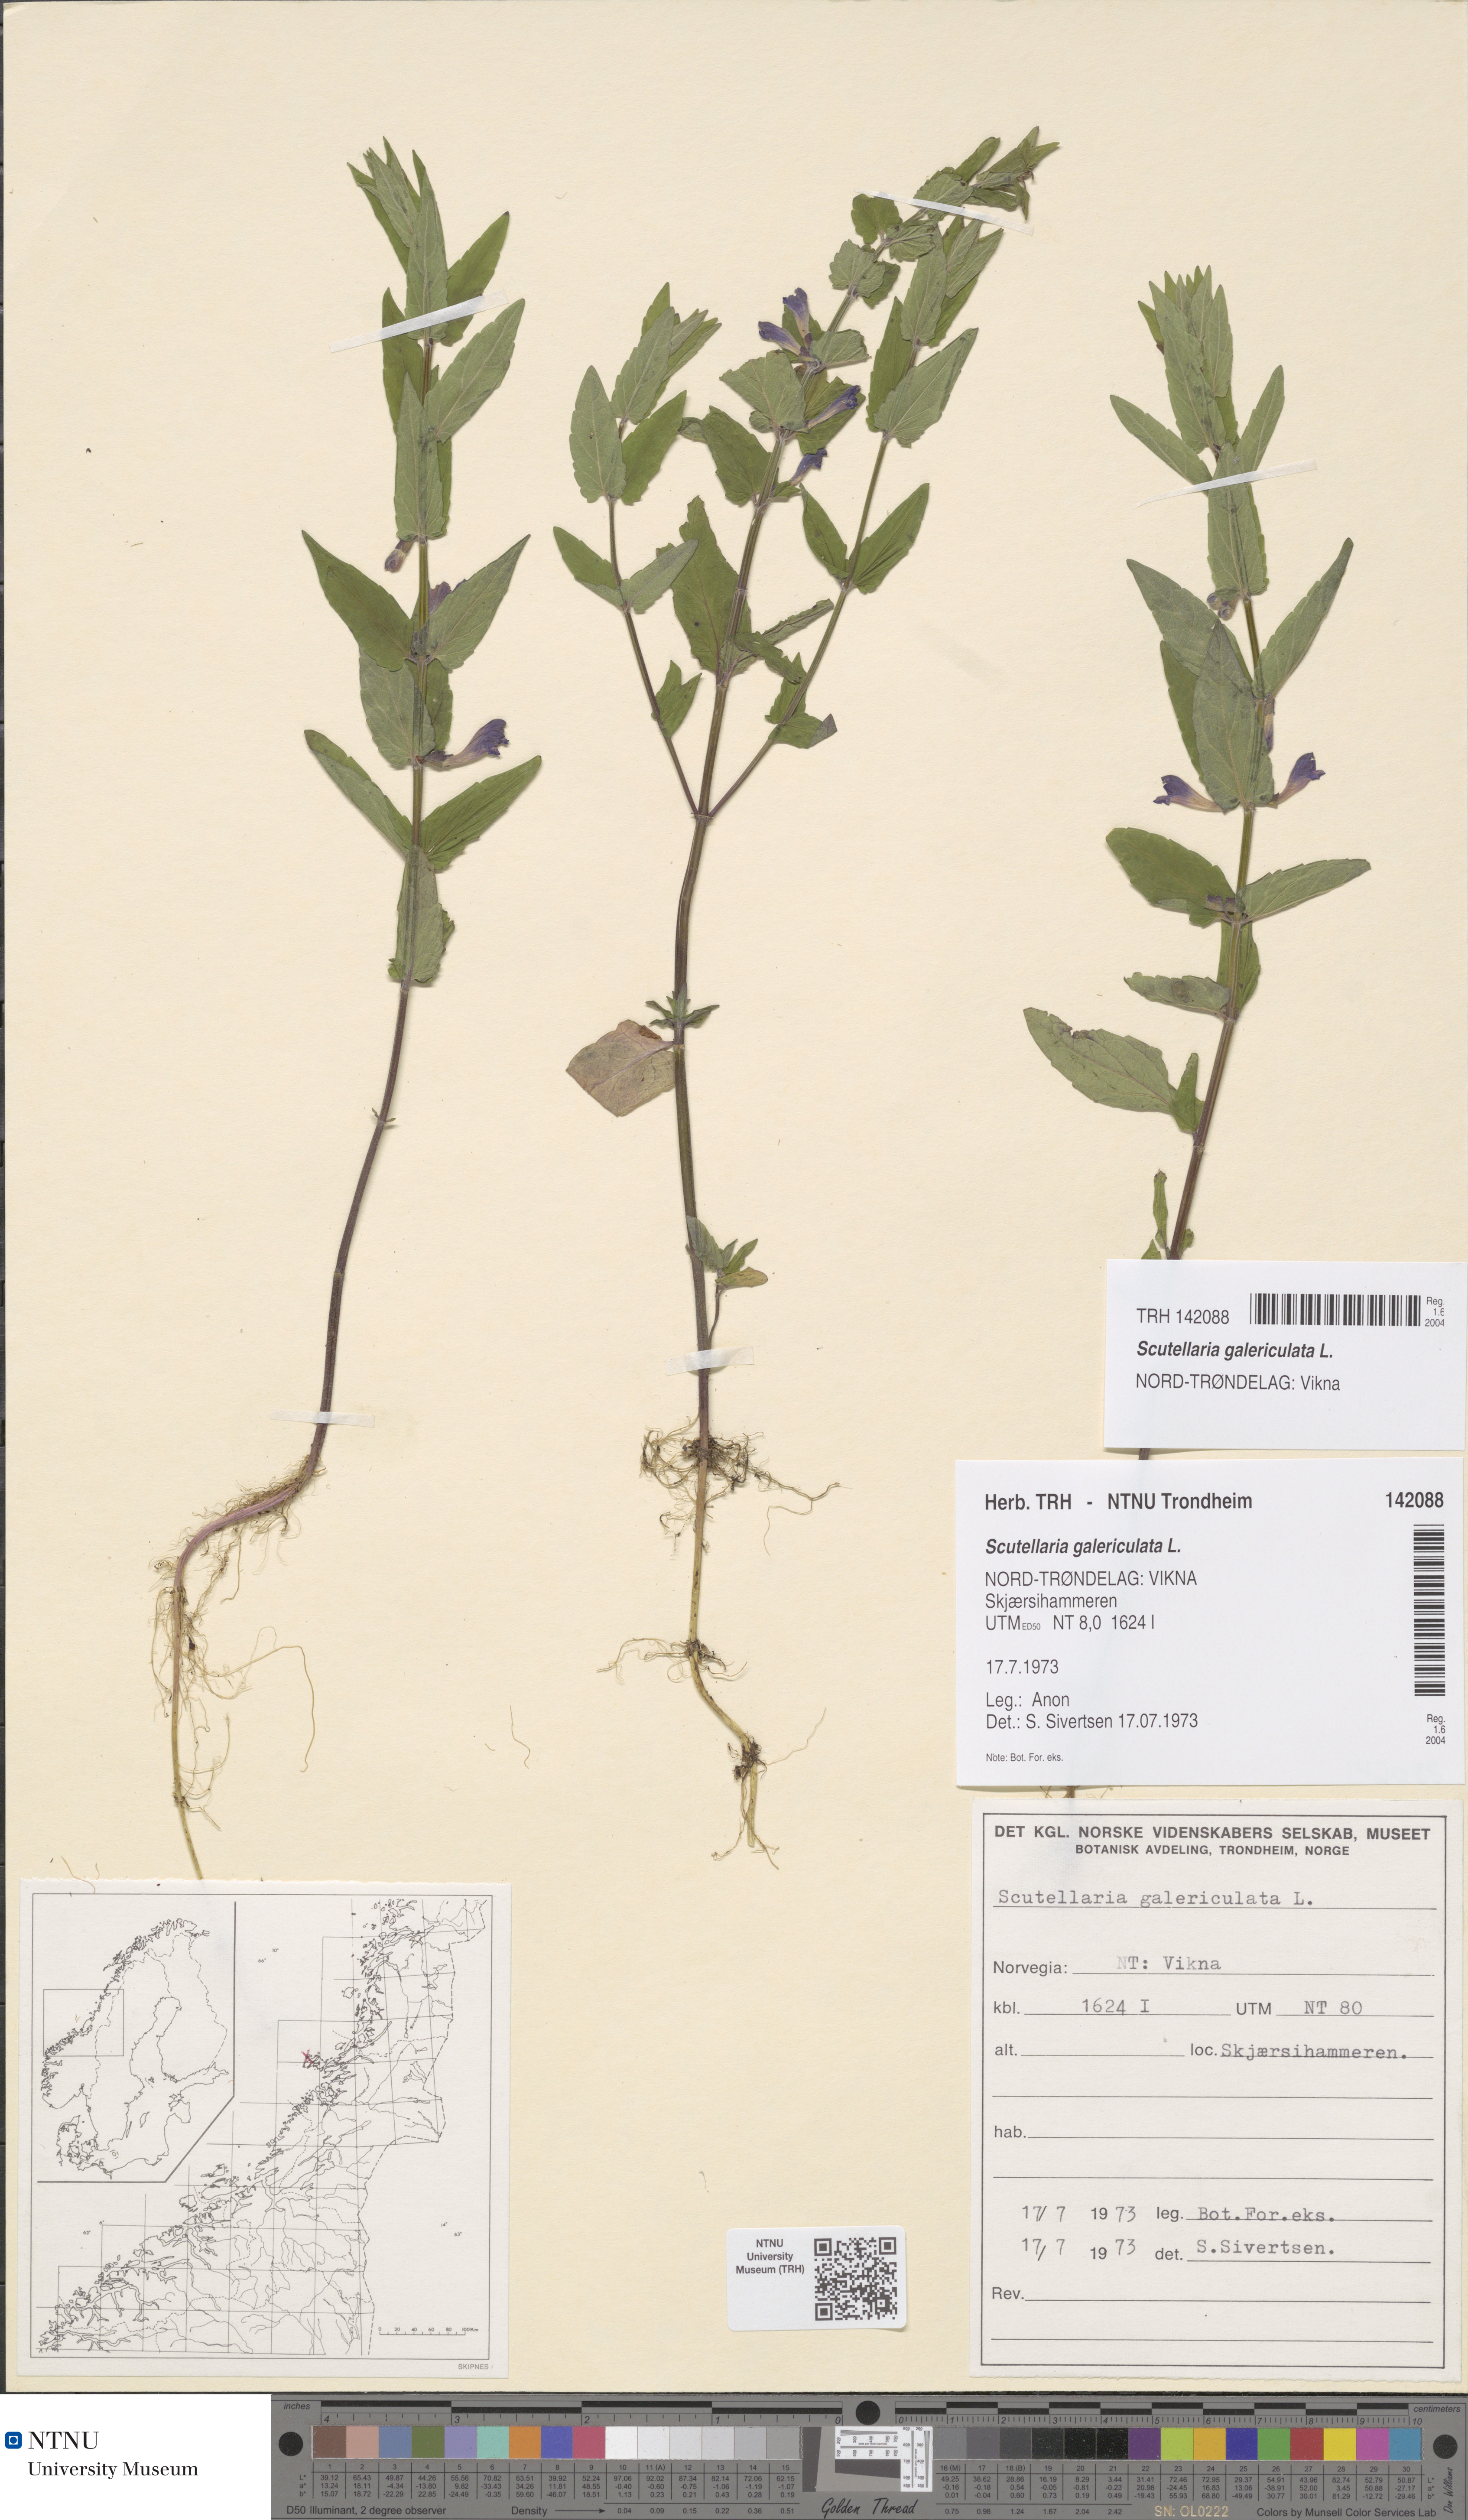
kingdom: Plantae
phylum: Tracheophyta
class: Magnoliopsida
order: Lamiales
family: Lamiaceae
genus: Scutellaria
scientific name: Scutellaria galericulata
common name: Skullcap
